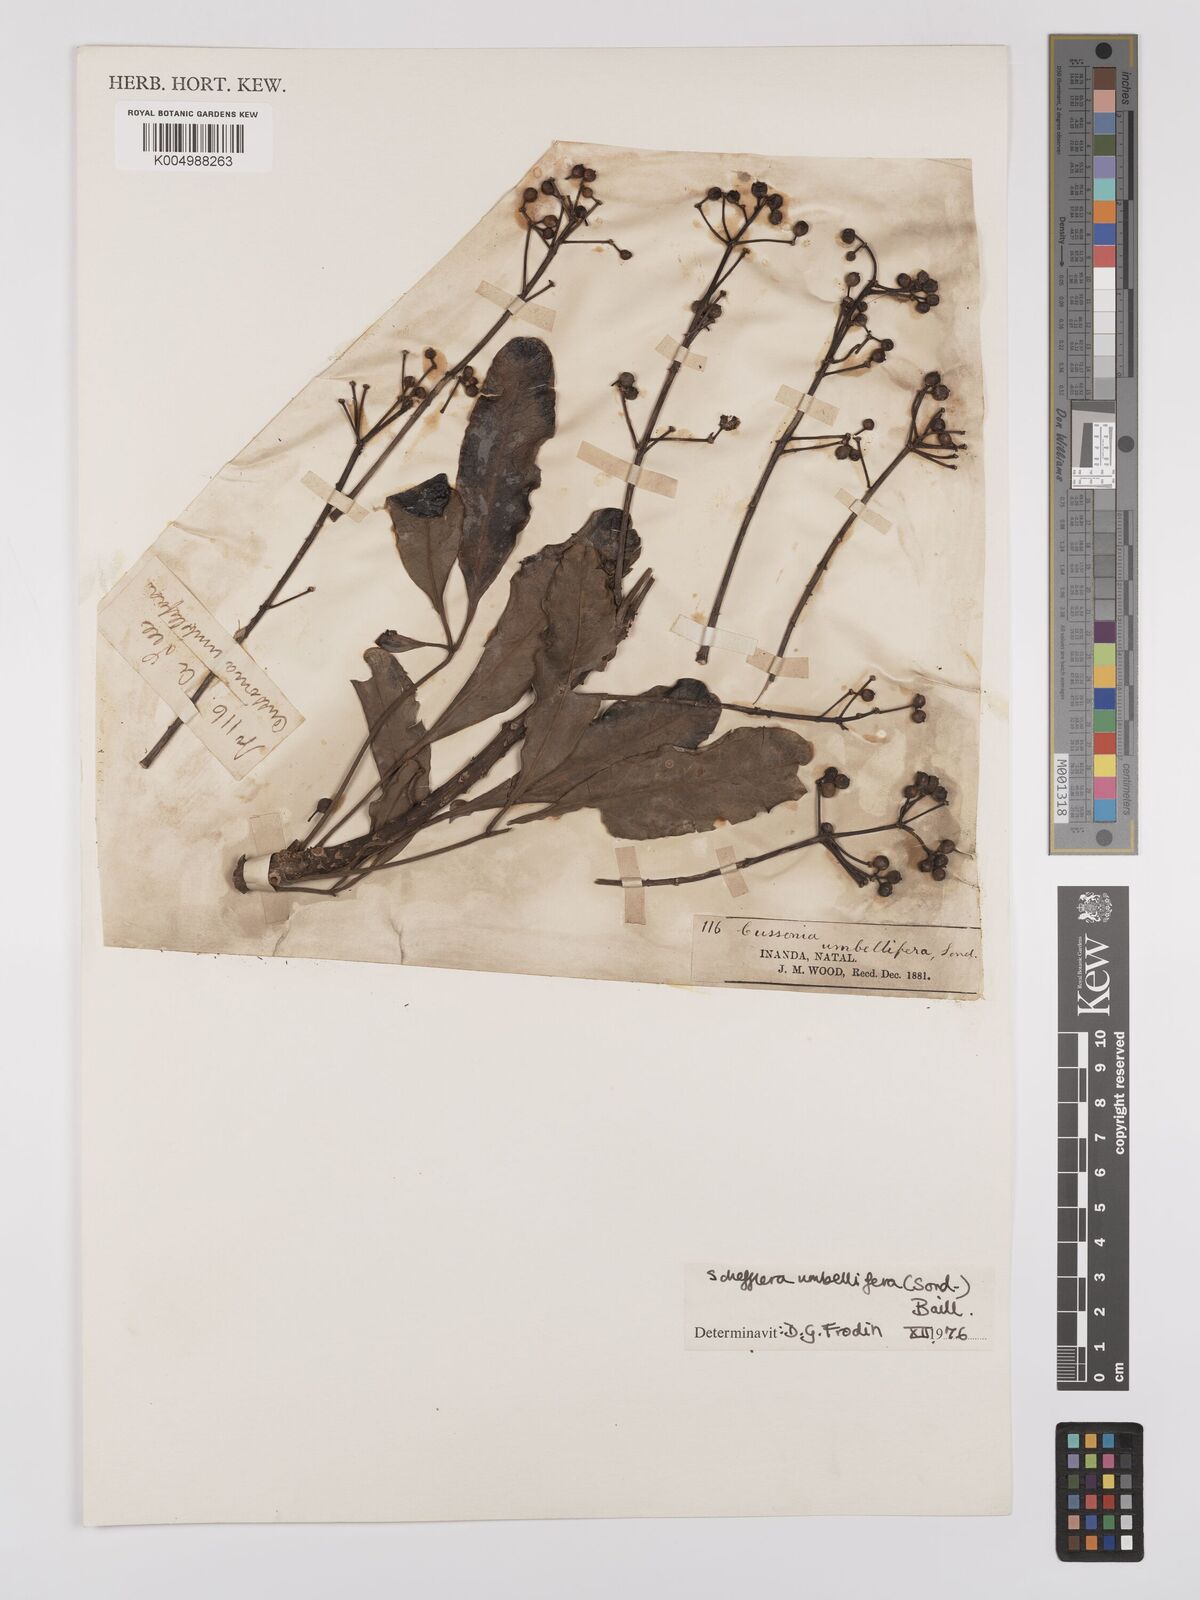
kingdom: Plantae
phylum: Tracheophyta
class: Magnoliopsida
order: Apiales
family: Araliaceae
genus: Neocussonia
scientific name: Neocussonia umbellifera
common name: False cabbage tree
